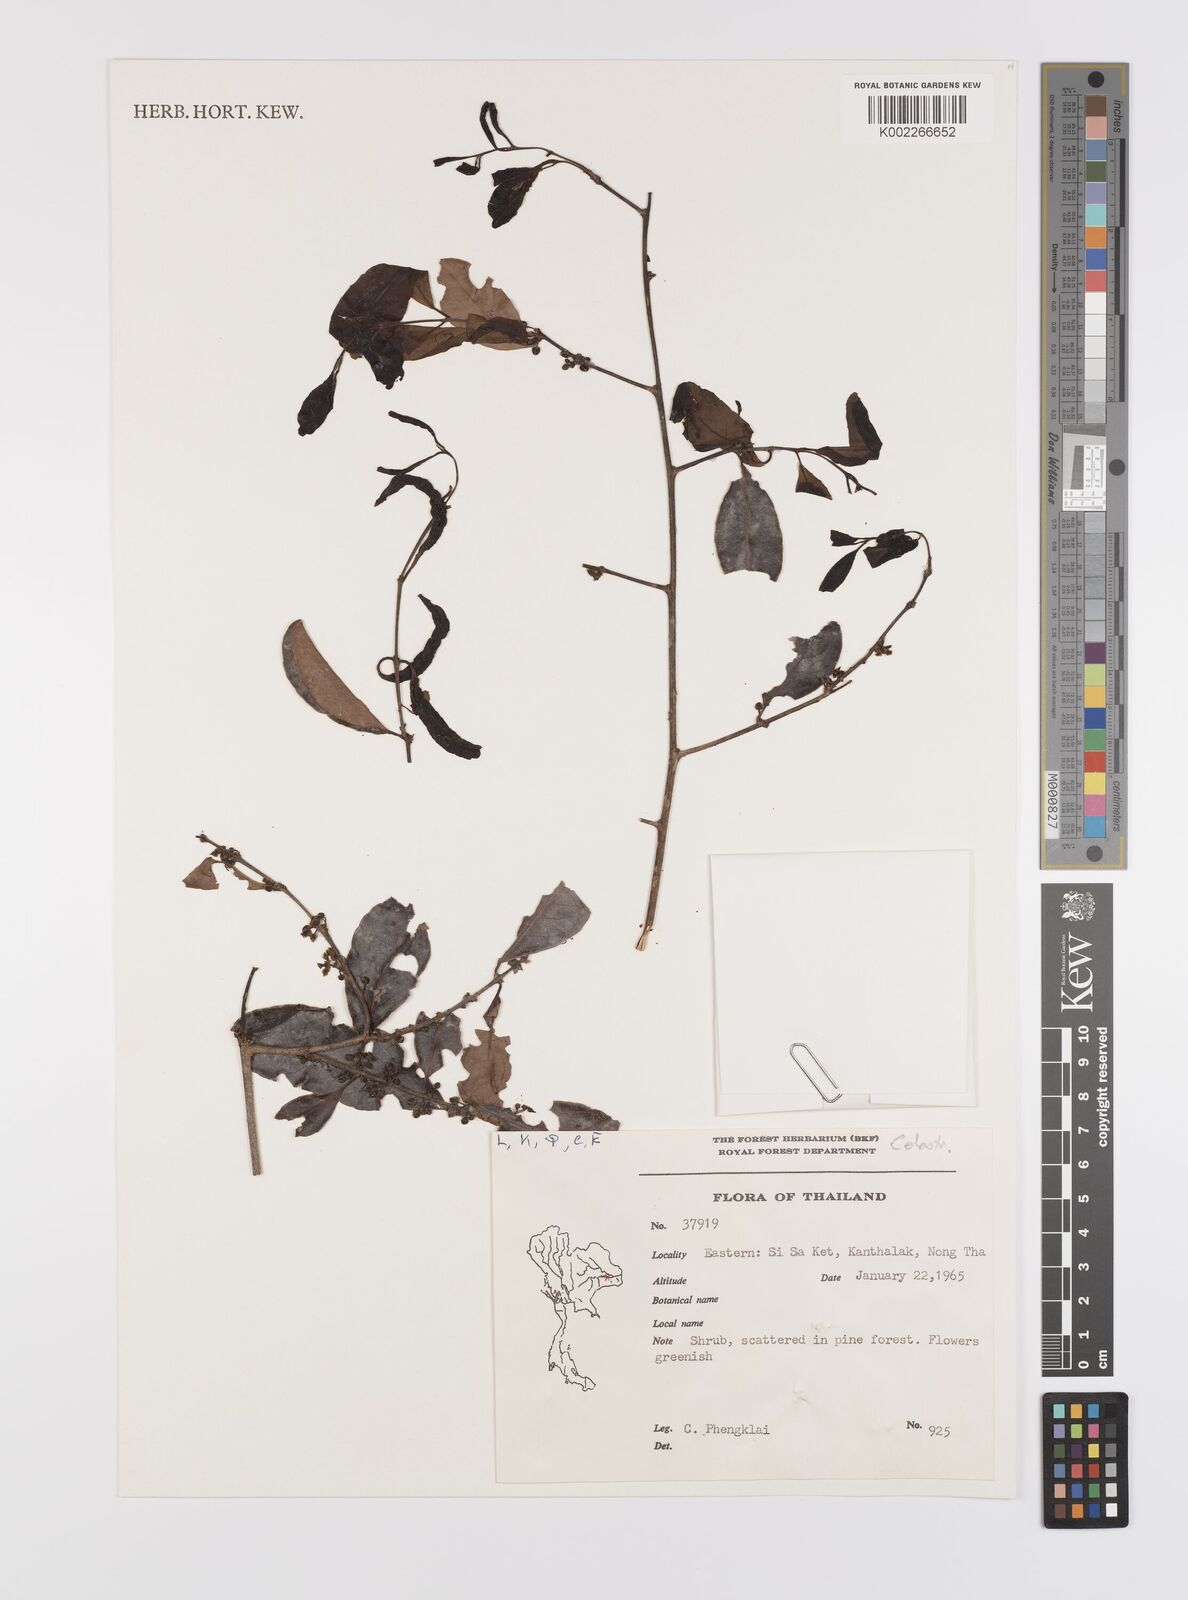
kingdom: Plantae
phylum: Tracheophyta
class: Magnoliopsida
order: Celastrales
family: Celastraceae
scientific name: Celastraceae
